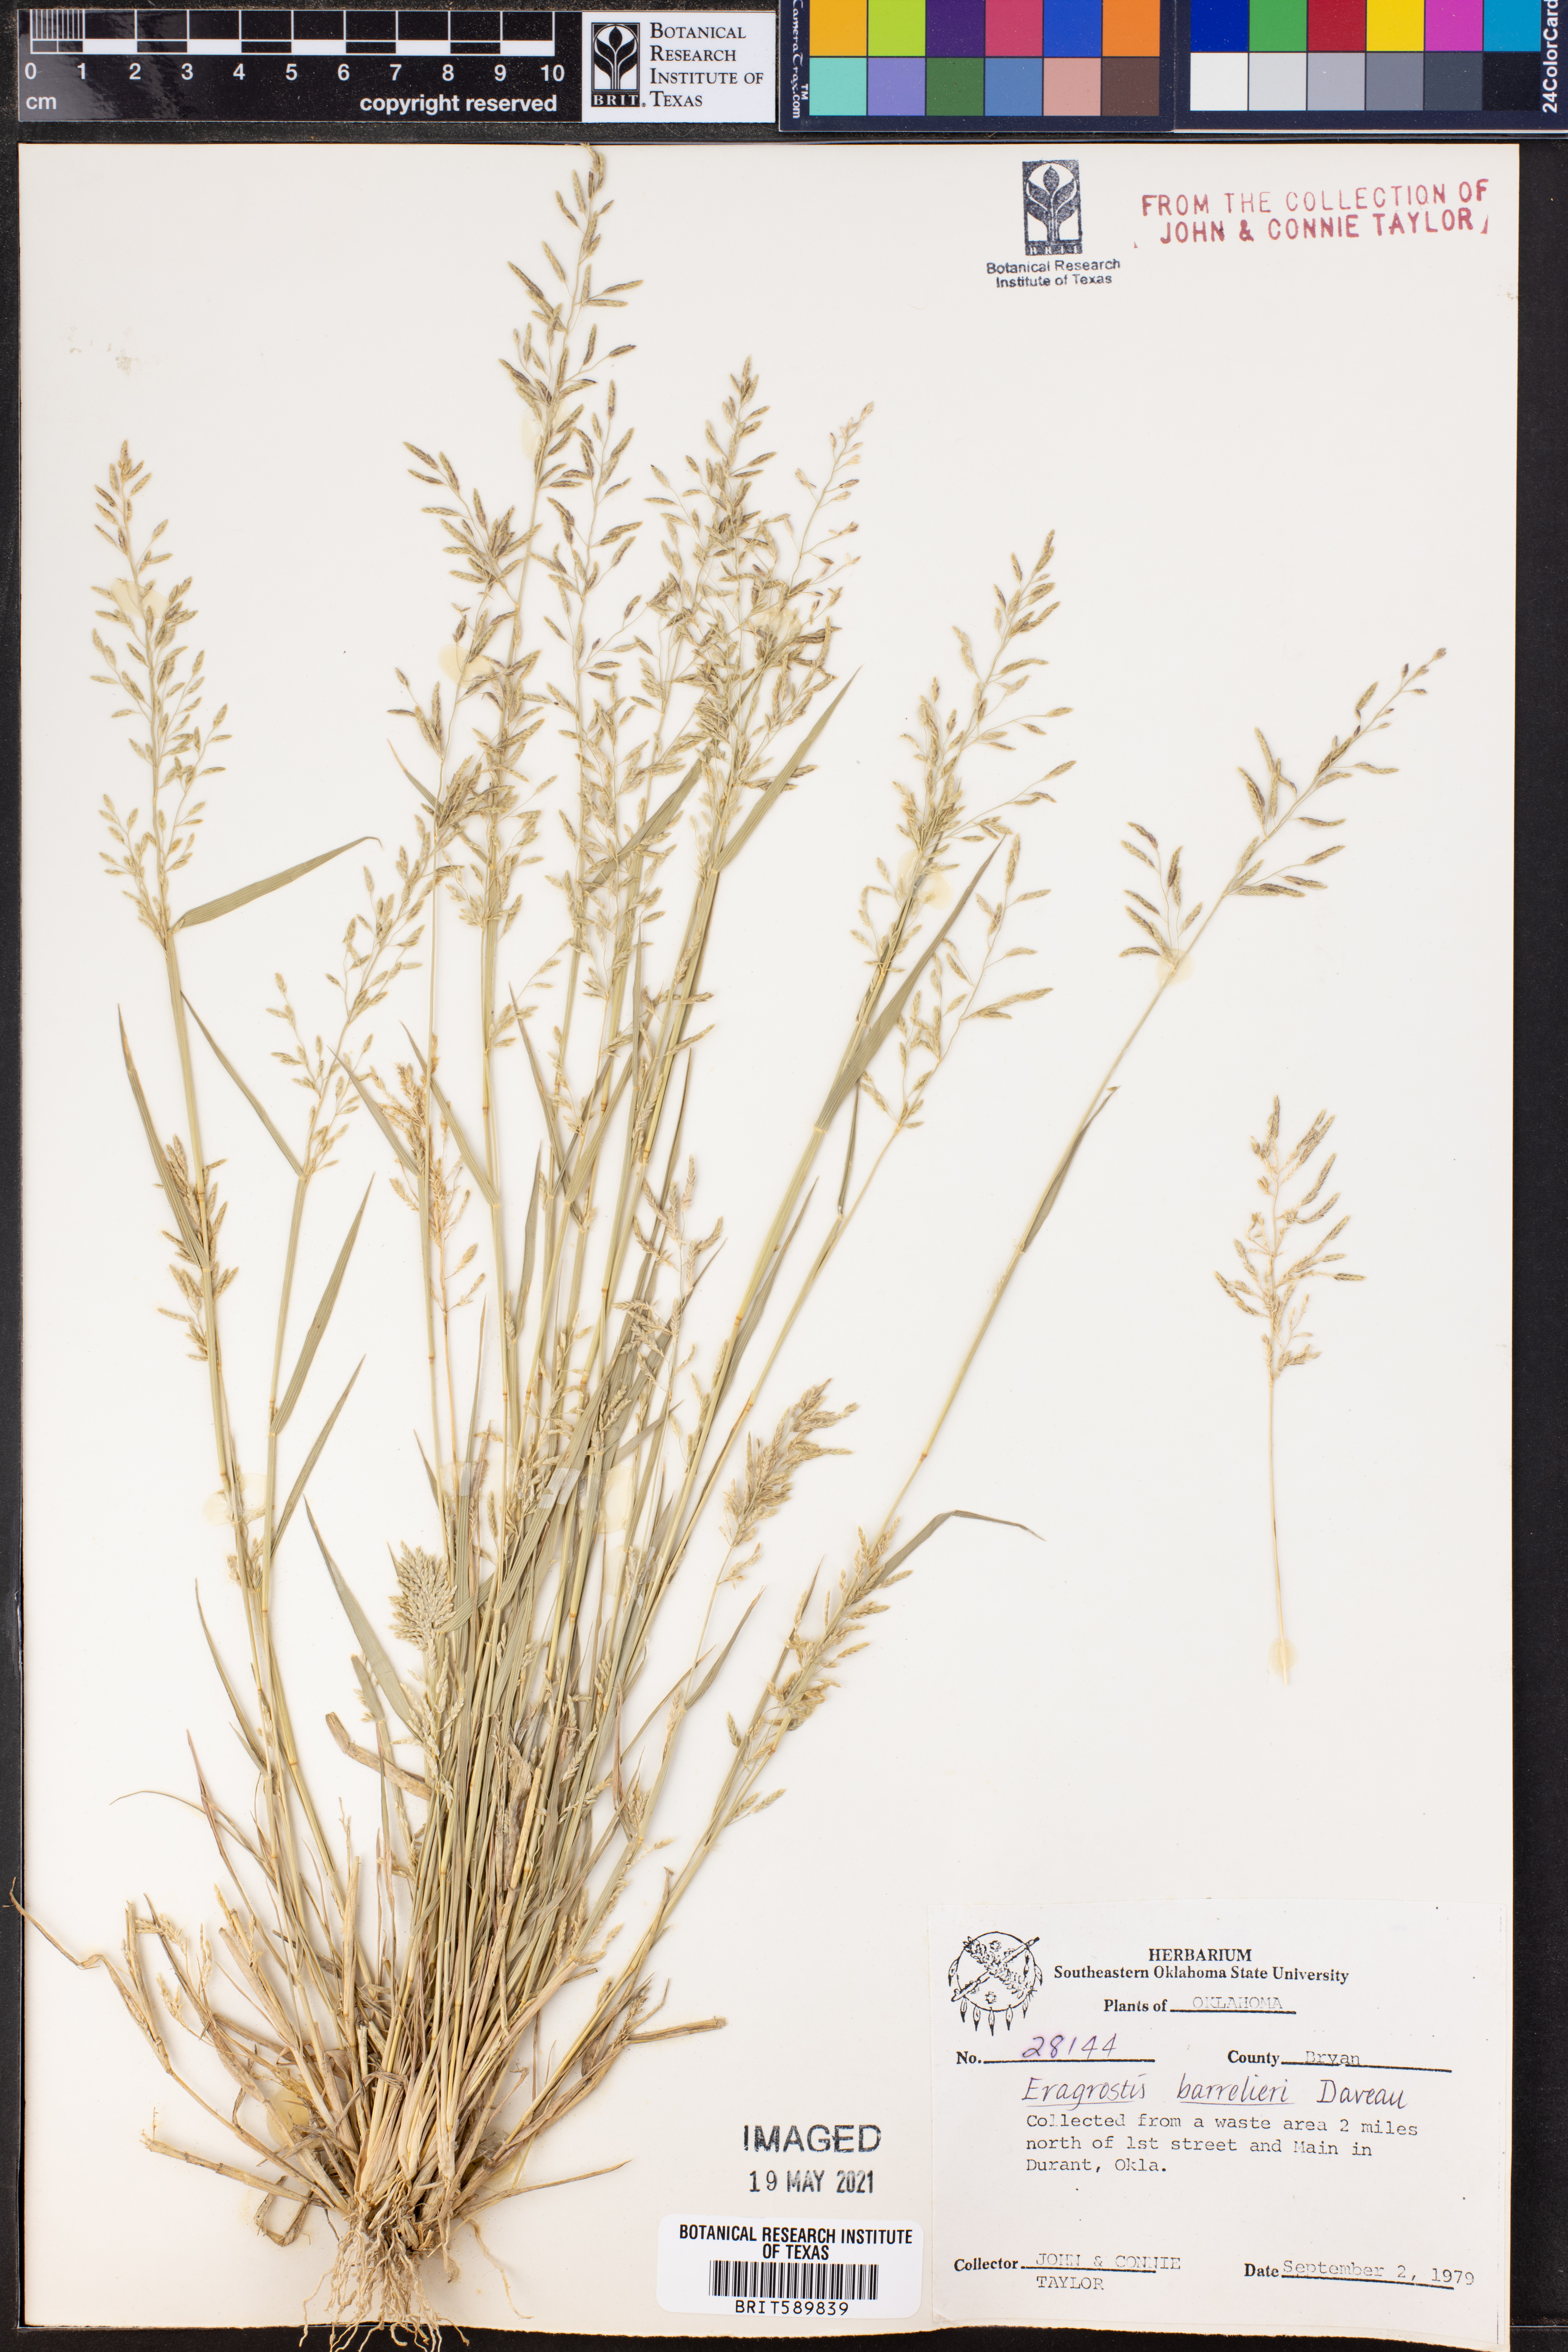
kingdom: Plantae
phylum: Tracheophyta
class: Liliopsida
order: Poales
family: Poaceae
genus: Eragrostis
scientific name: Eragrostis barrelieri
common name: Mediterranean lovegrass
